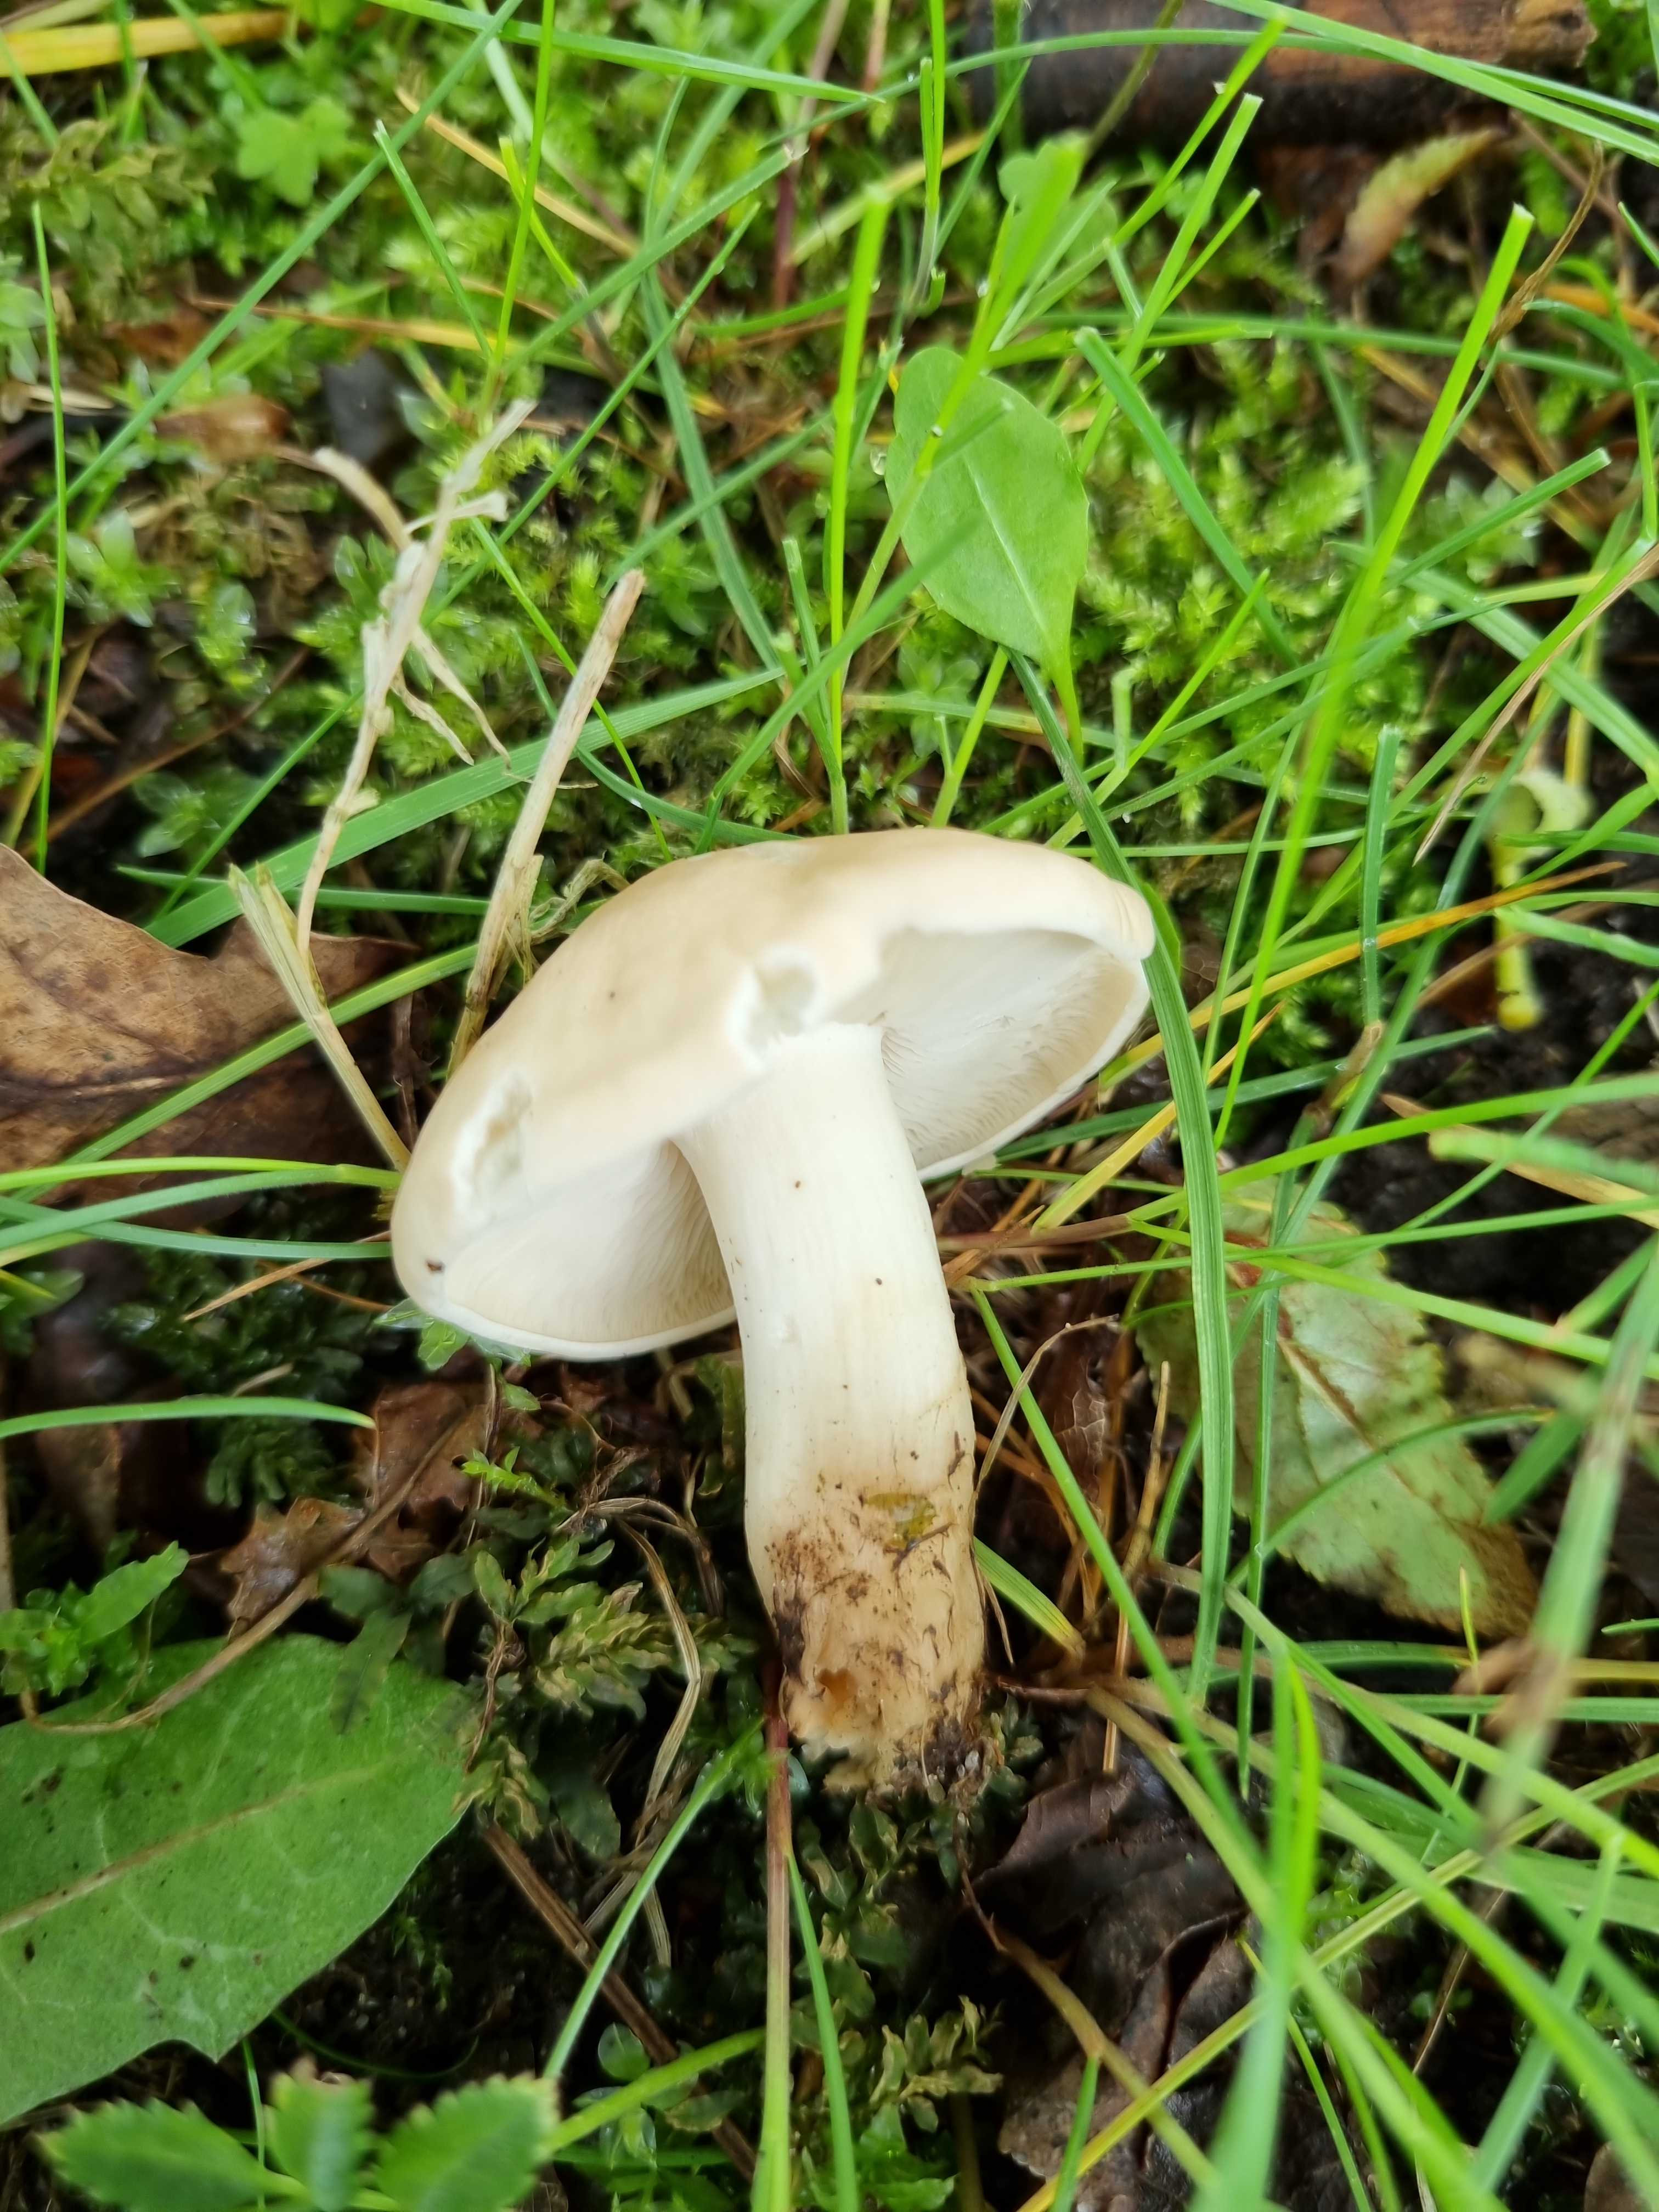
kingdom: Fungi
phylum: Basidiomycota
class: Agaricomycetes
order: Agaricales
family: Lyophyllaceae
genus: Calocybe
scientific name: Calocybe gambosa
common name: vårmusseron
